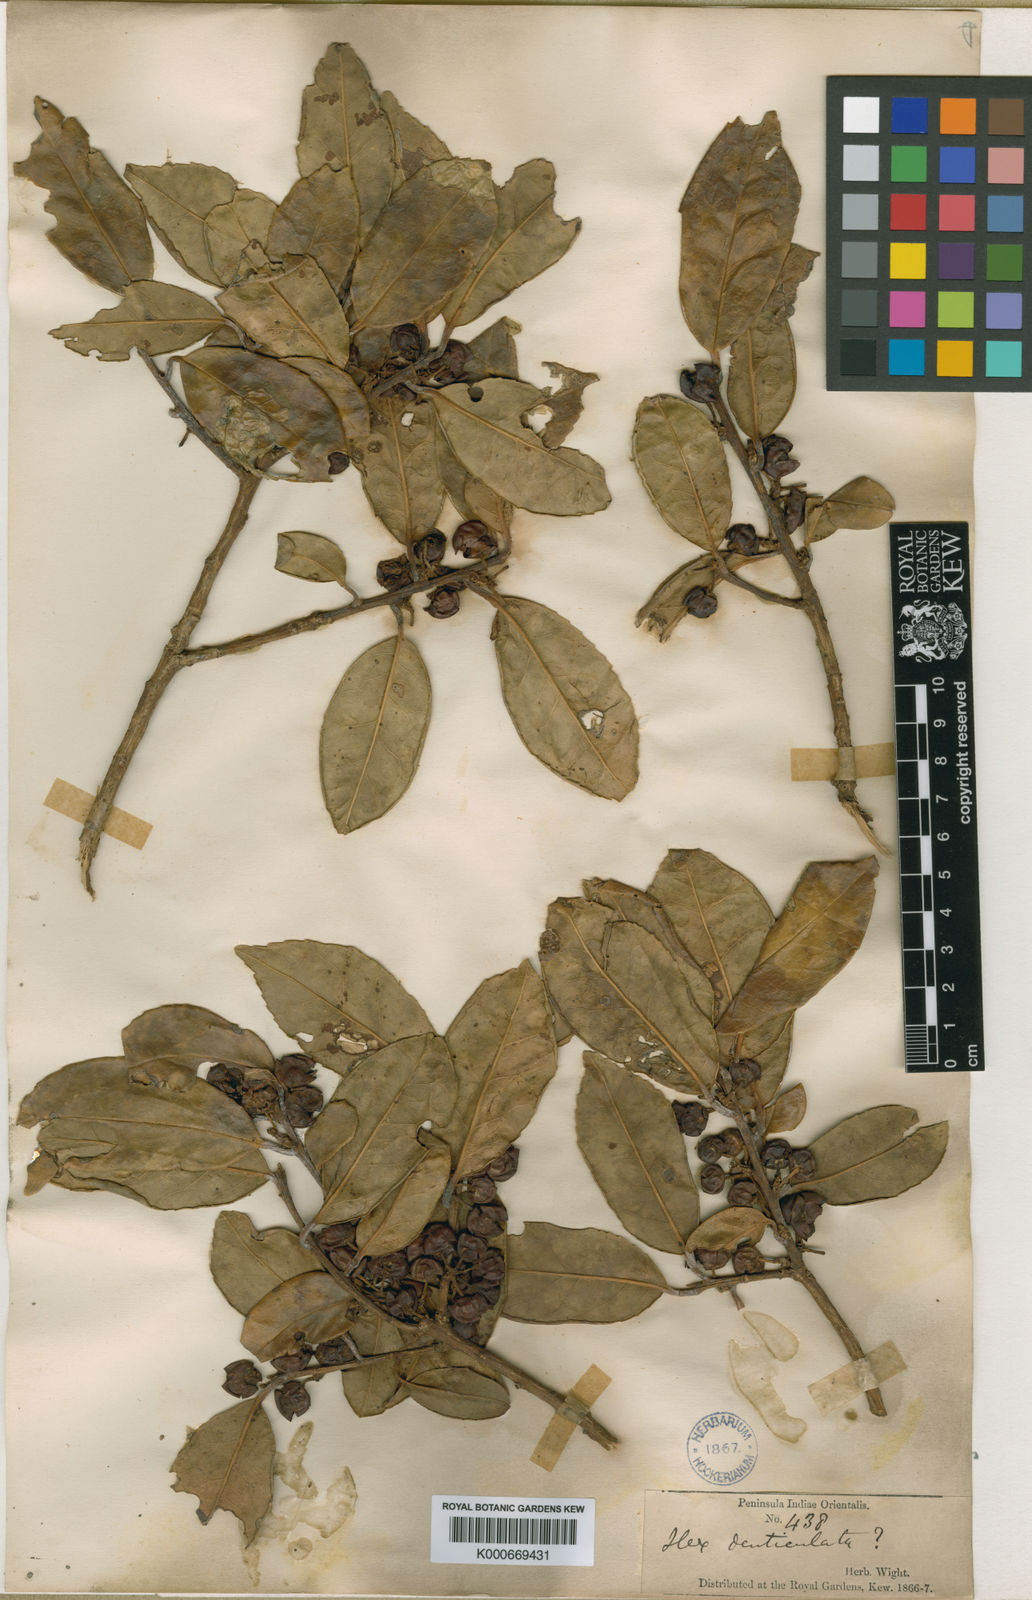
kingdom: Plantae
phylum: Tracheophyta
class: Magnoliopsida
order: Aquifoliales
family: Aquifoliaceae
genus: Ilex
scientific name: Ilex denticulata
